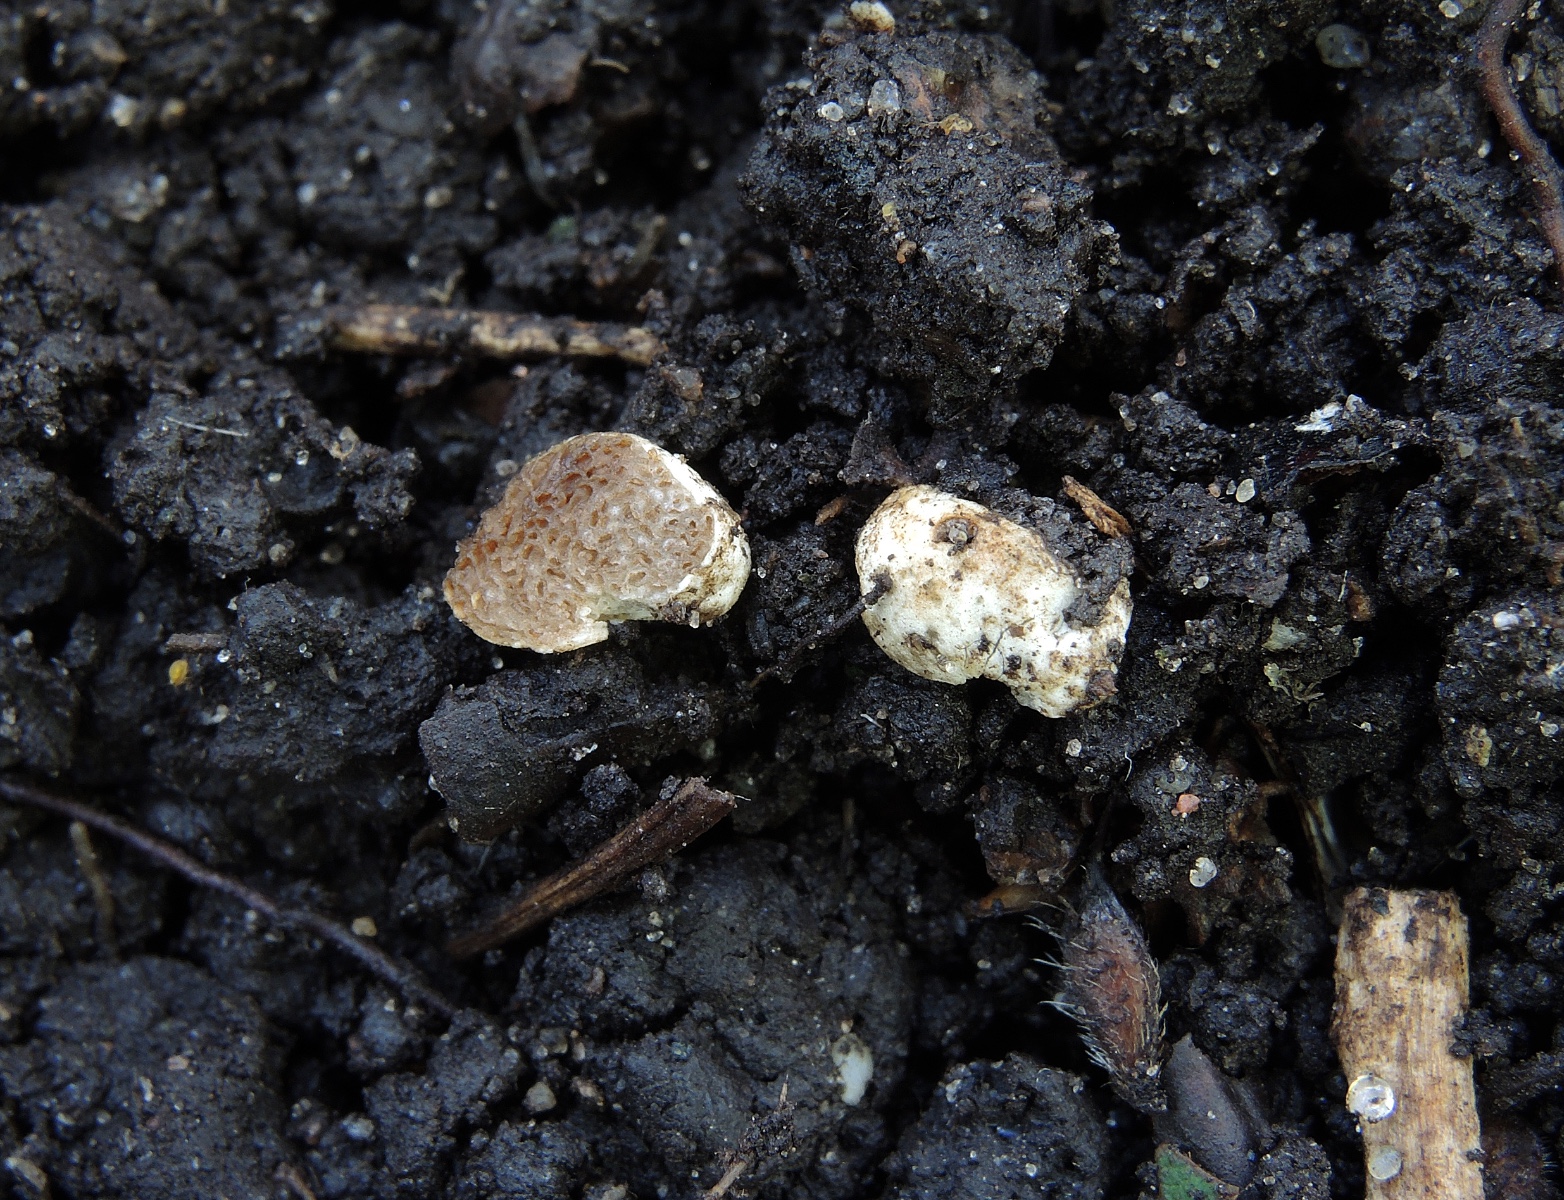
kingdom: Fungi
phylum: Basidiomycota
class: Agaricomycetes
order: Agaricales
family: Hymenogastraceae
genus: Hymenogaster
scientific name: Hymenogaster
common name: knoldtrøffel
